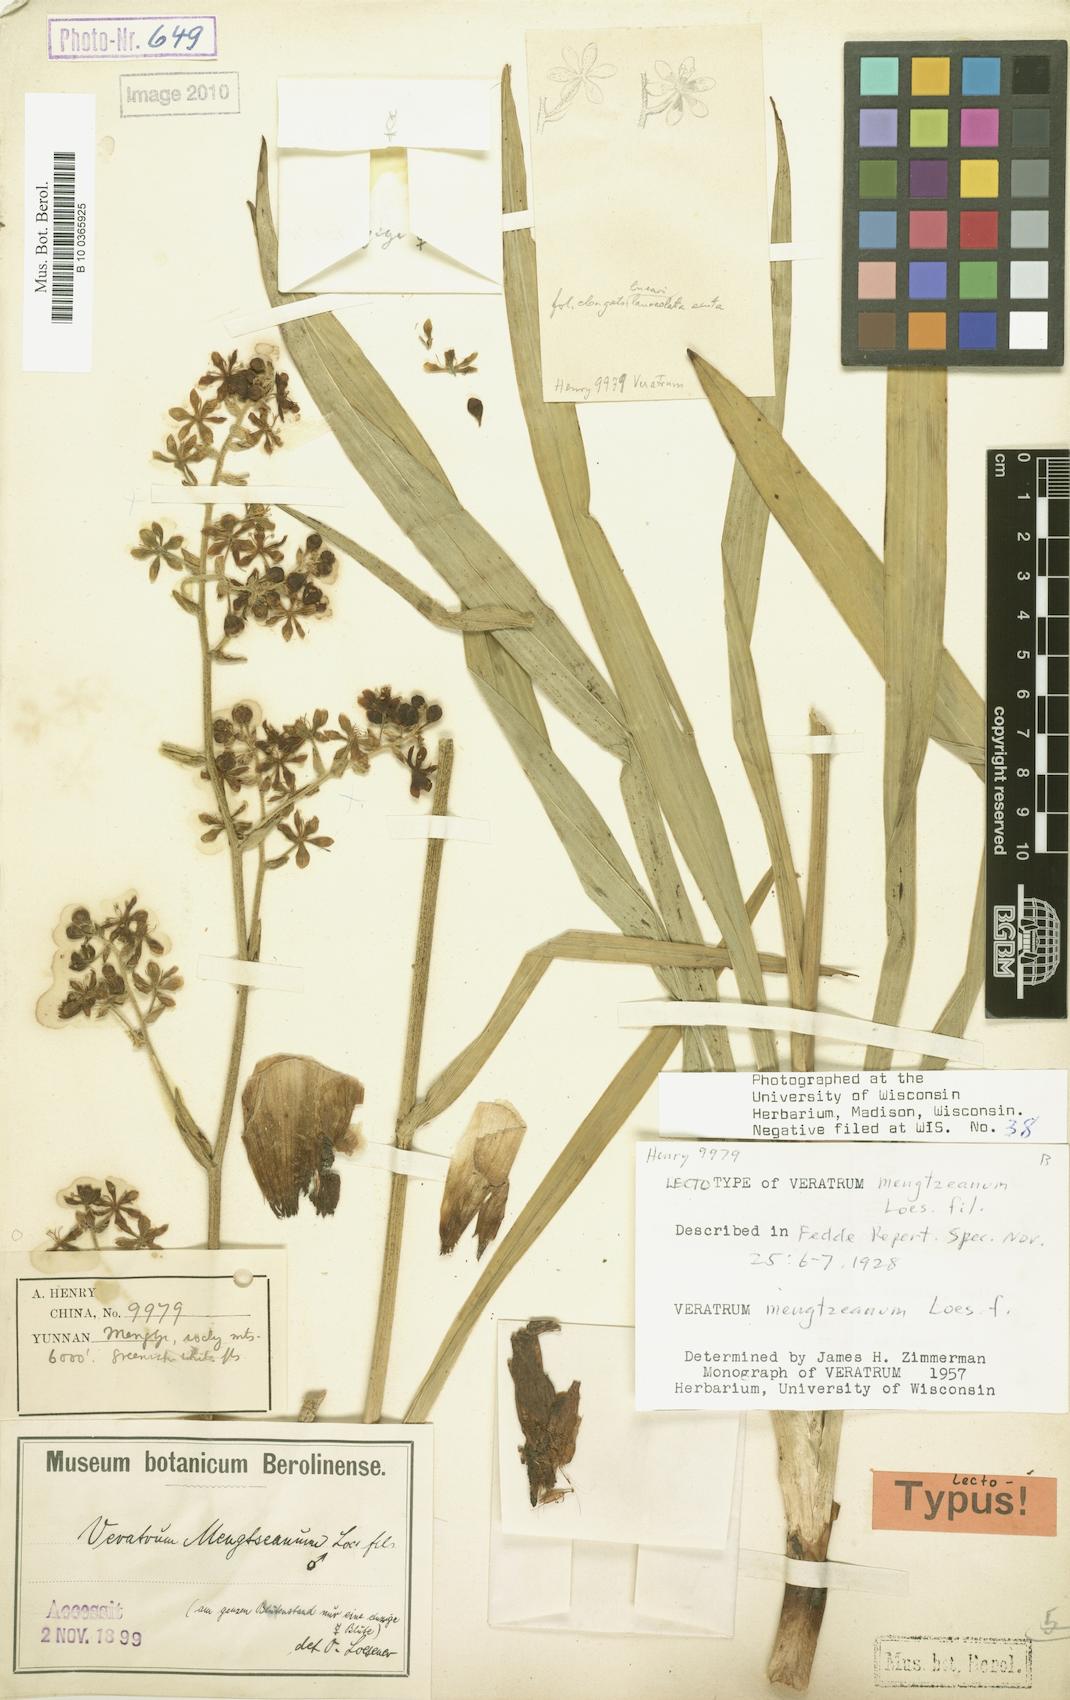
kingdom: Plantae
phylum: Tracheophyta
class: Liliopsida
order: Liliales
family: Melanthiaceae
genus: Veratrum
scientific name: Veratrum mengtzeanum
